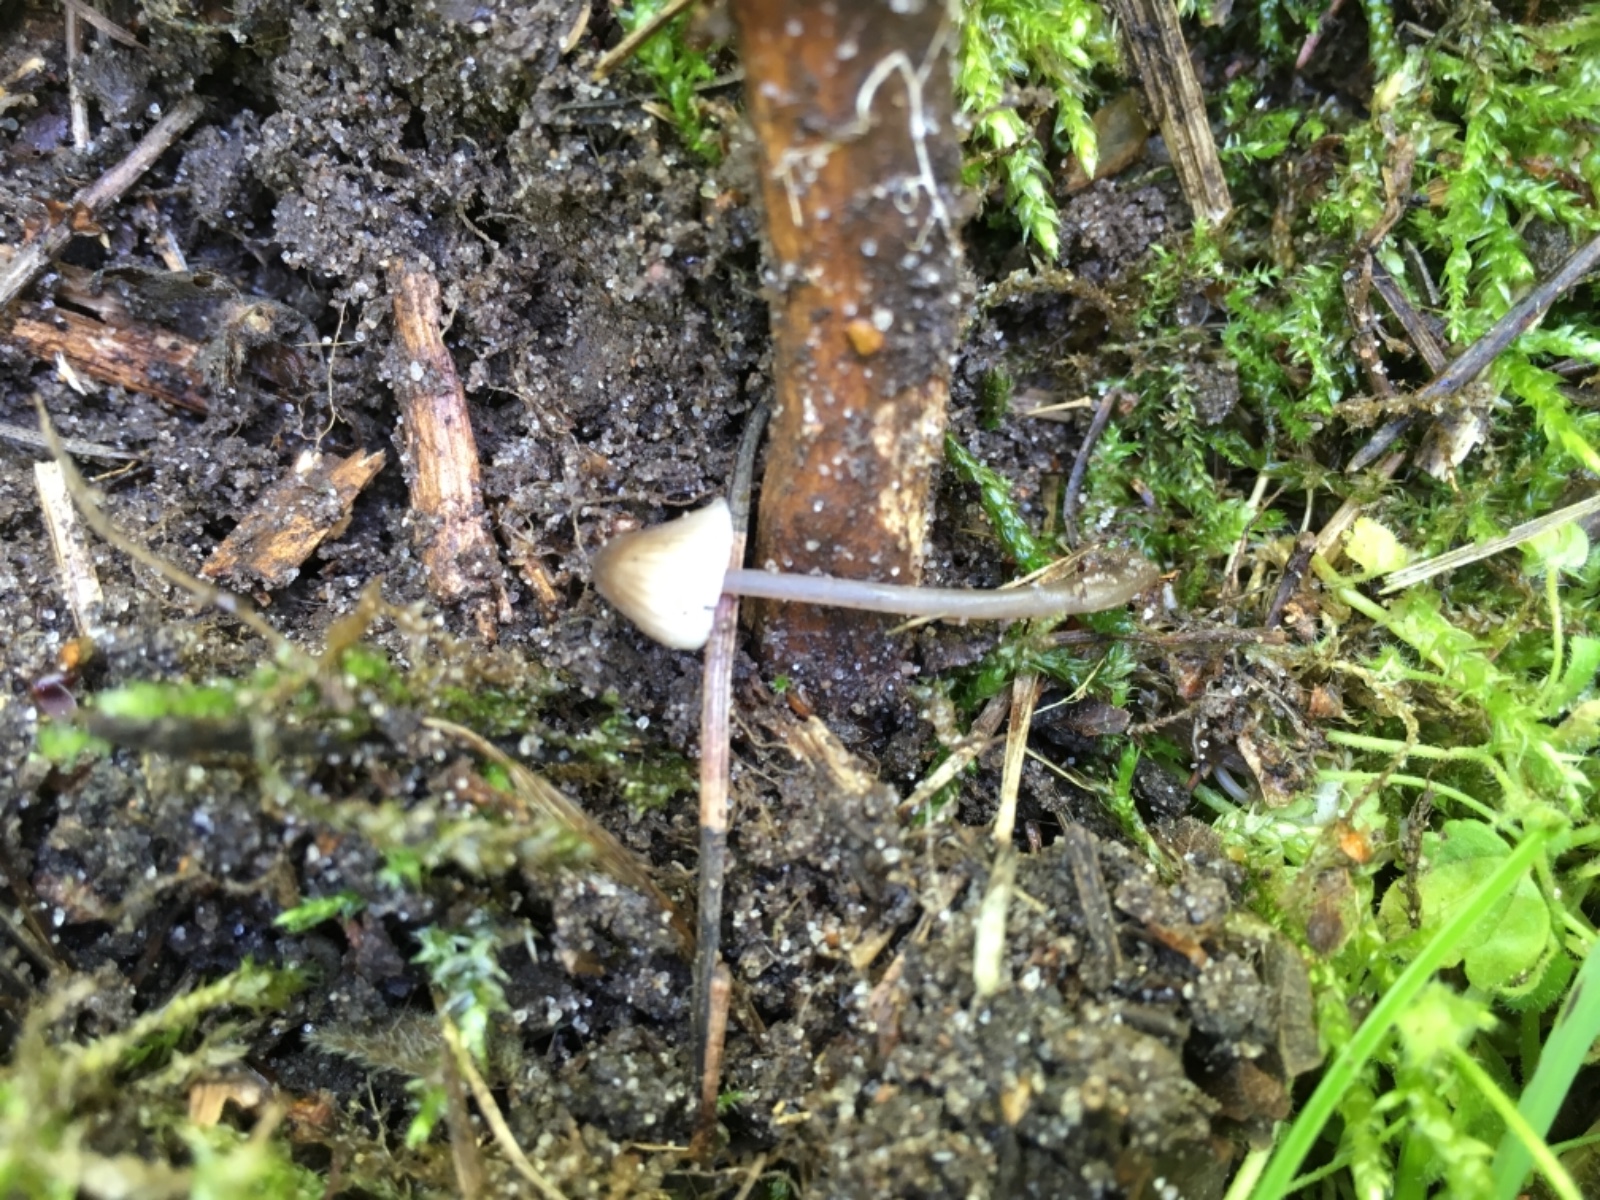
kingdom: Fungi
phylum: Basidiomycota
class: Agaricomycetes
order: Agaricales
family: Mycenaceae
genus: Mycena
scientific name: Mycena leptocephala
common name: klor-huesvamp
